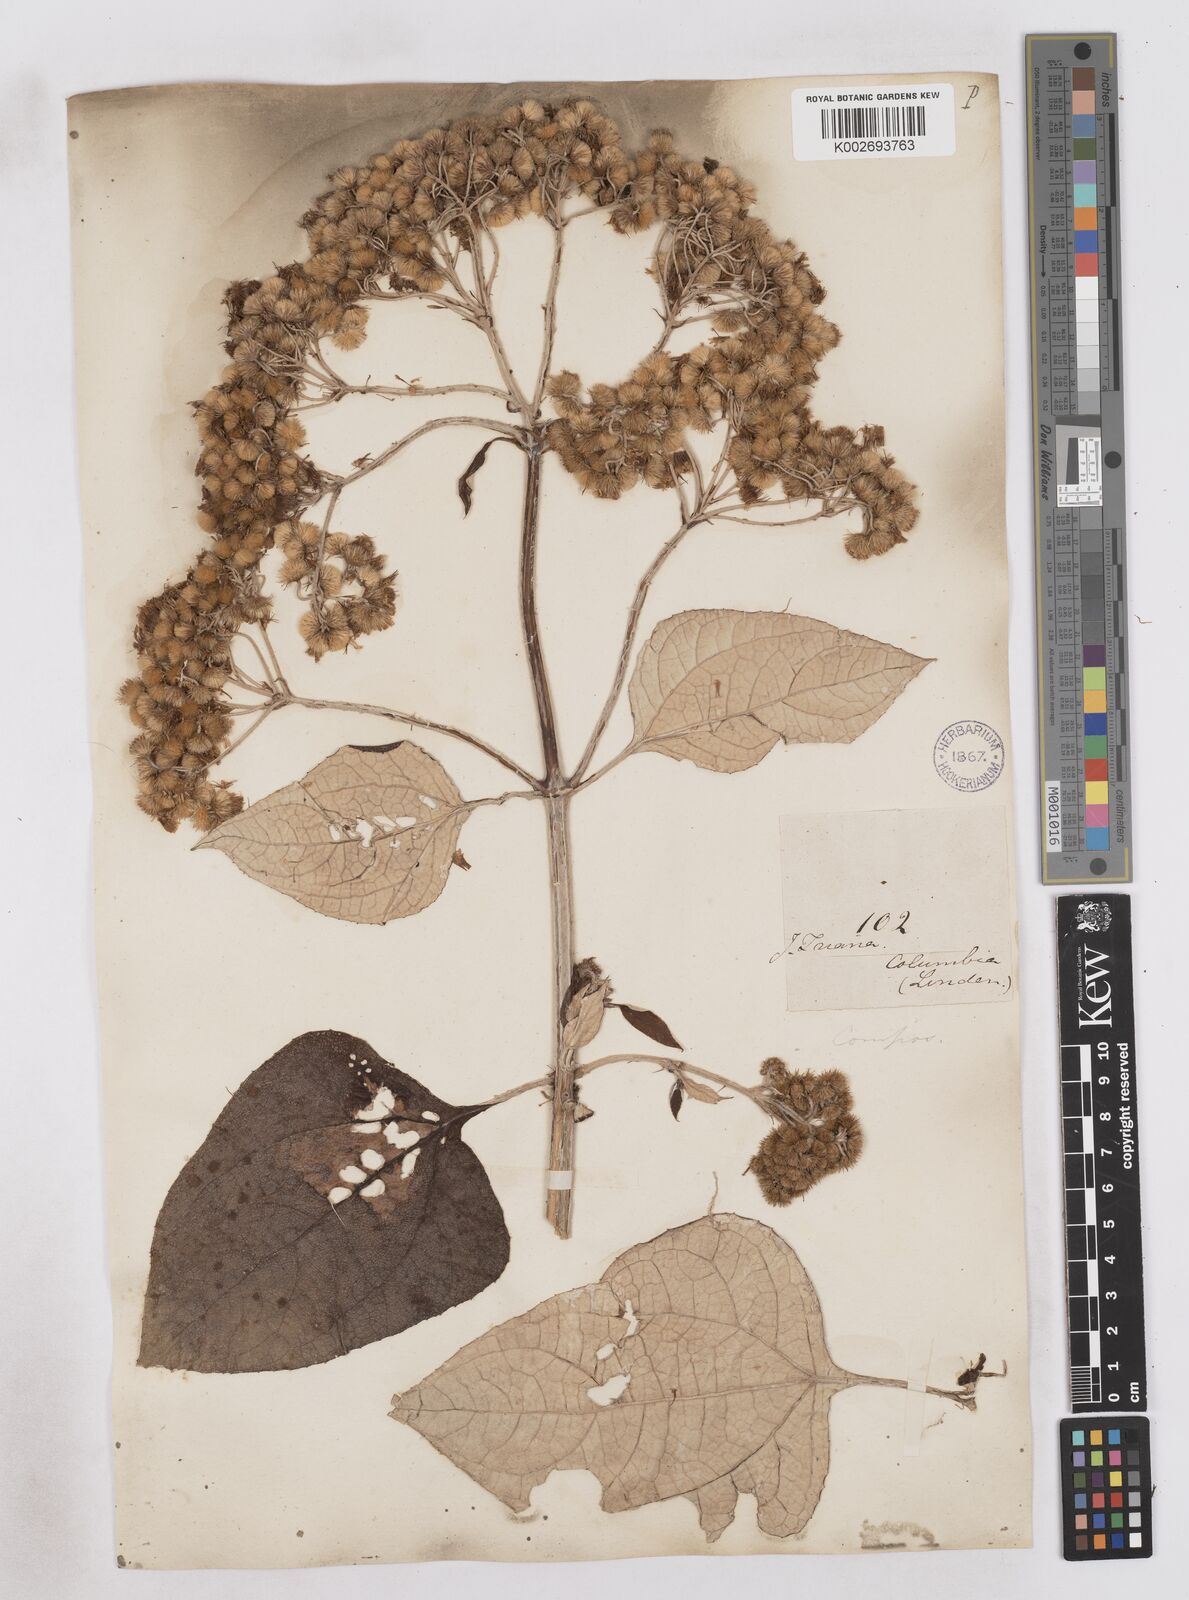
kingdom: Plantae
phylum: Tracheophyta
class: Magnoliopsida
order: Asterales
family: Asteraceae
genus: Platycarphella
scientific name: Platycarphella
